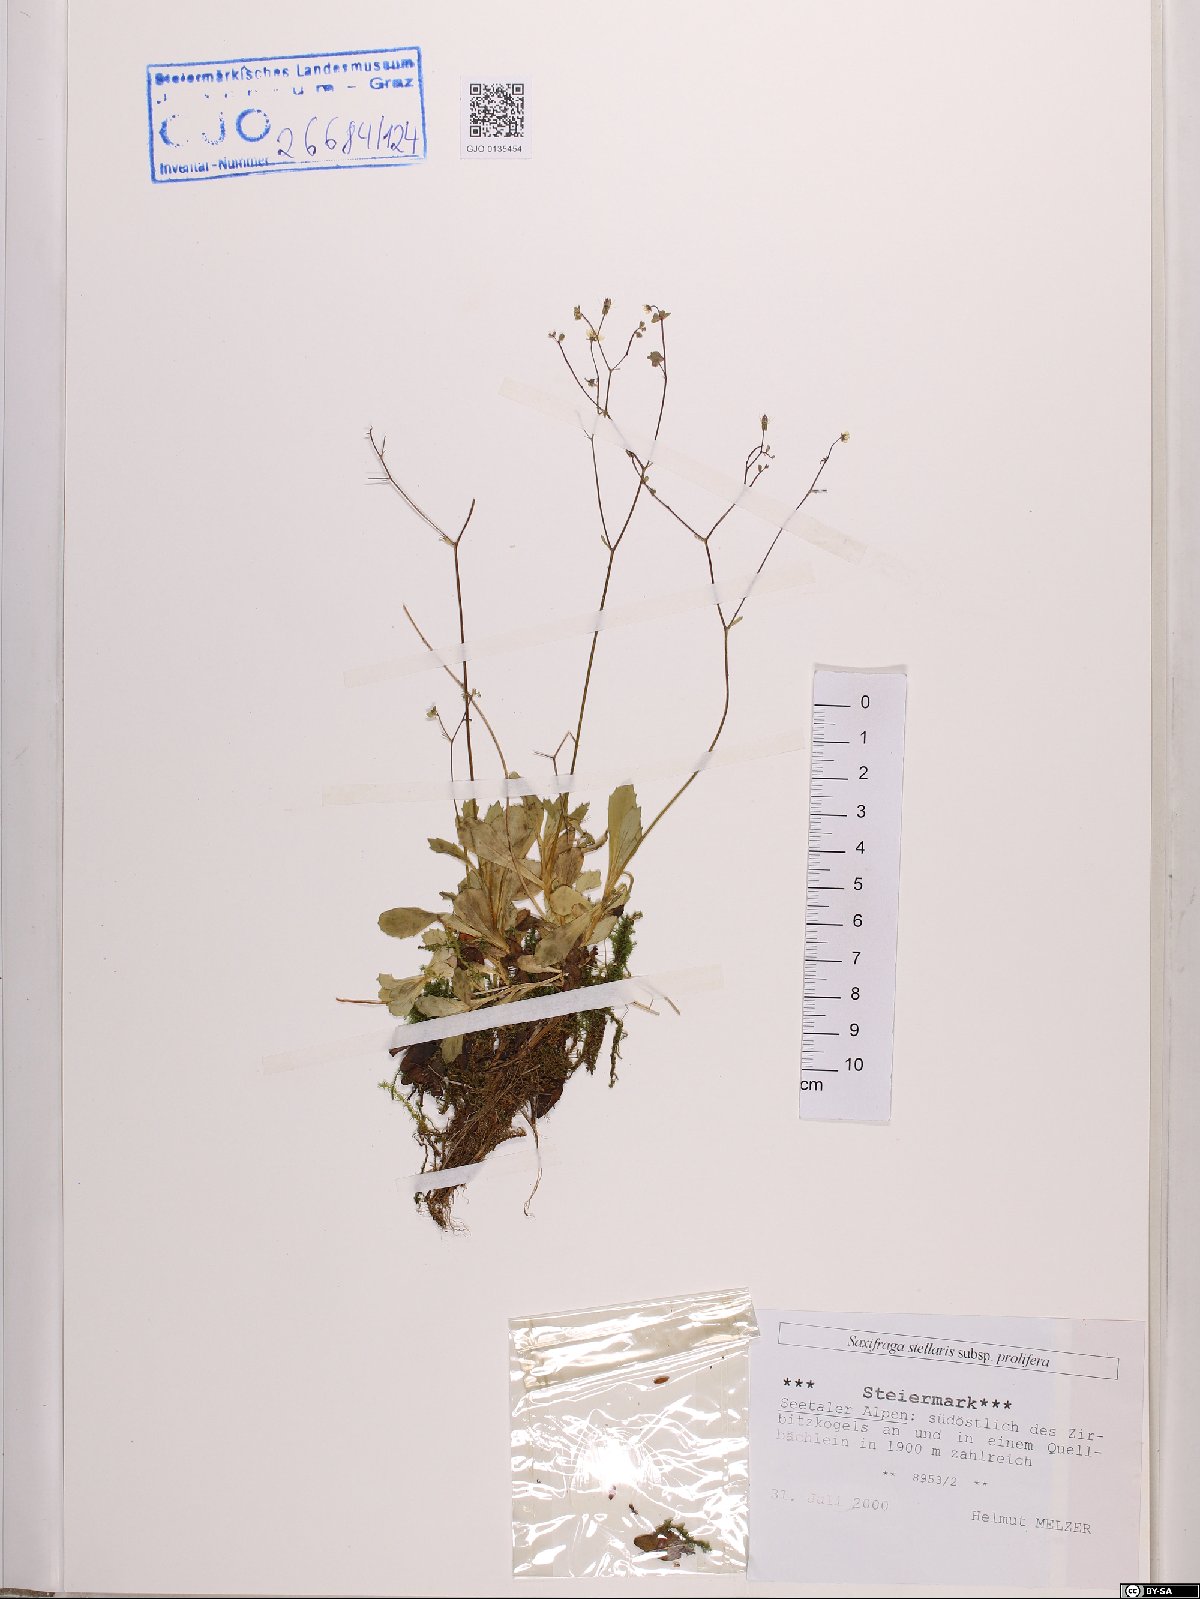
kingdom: Plantae
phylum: Tracheophyta
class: Magnoliopsida
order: Saxifragales
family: Saxifragaceae
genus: Micranthes
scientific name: Micranthes stellaris
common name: Starry saxifrage
